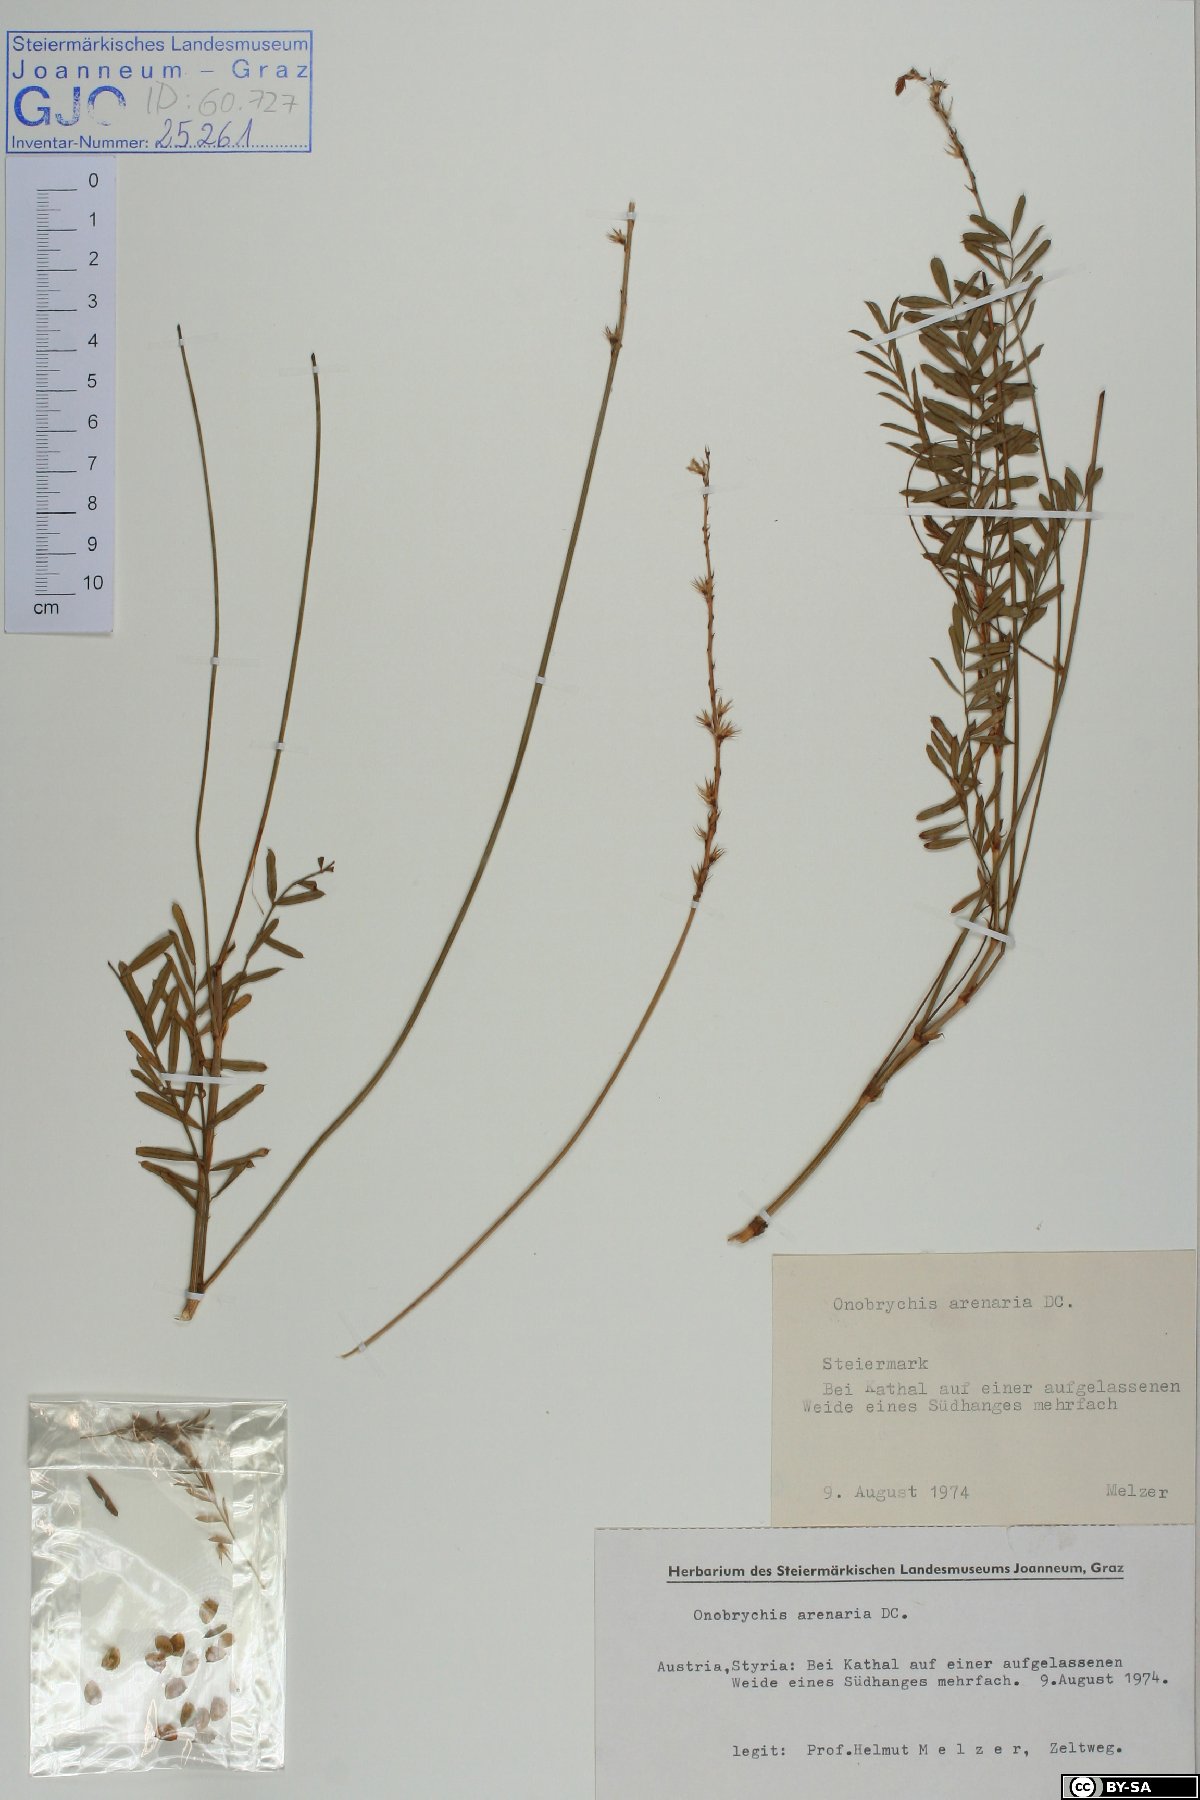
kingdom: Plantae
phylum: Tracheophyta
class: Magnoliopsida
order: Fabales
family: Fabaceae
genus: Onobrychis
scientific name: Onobrychis arenaria
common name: Sand esparcet
